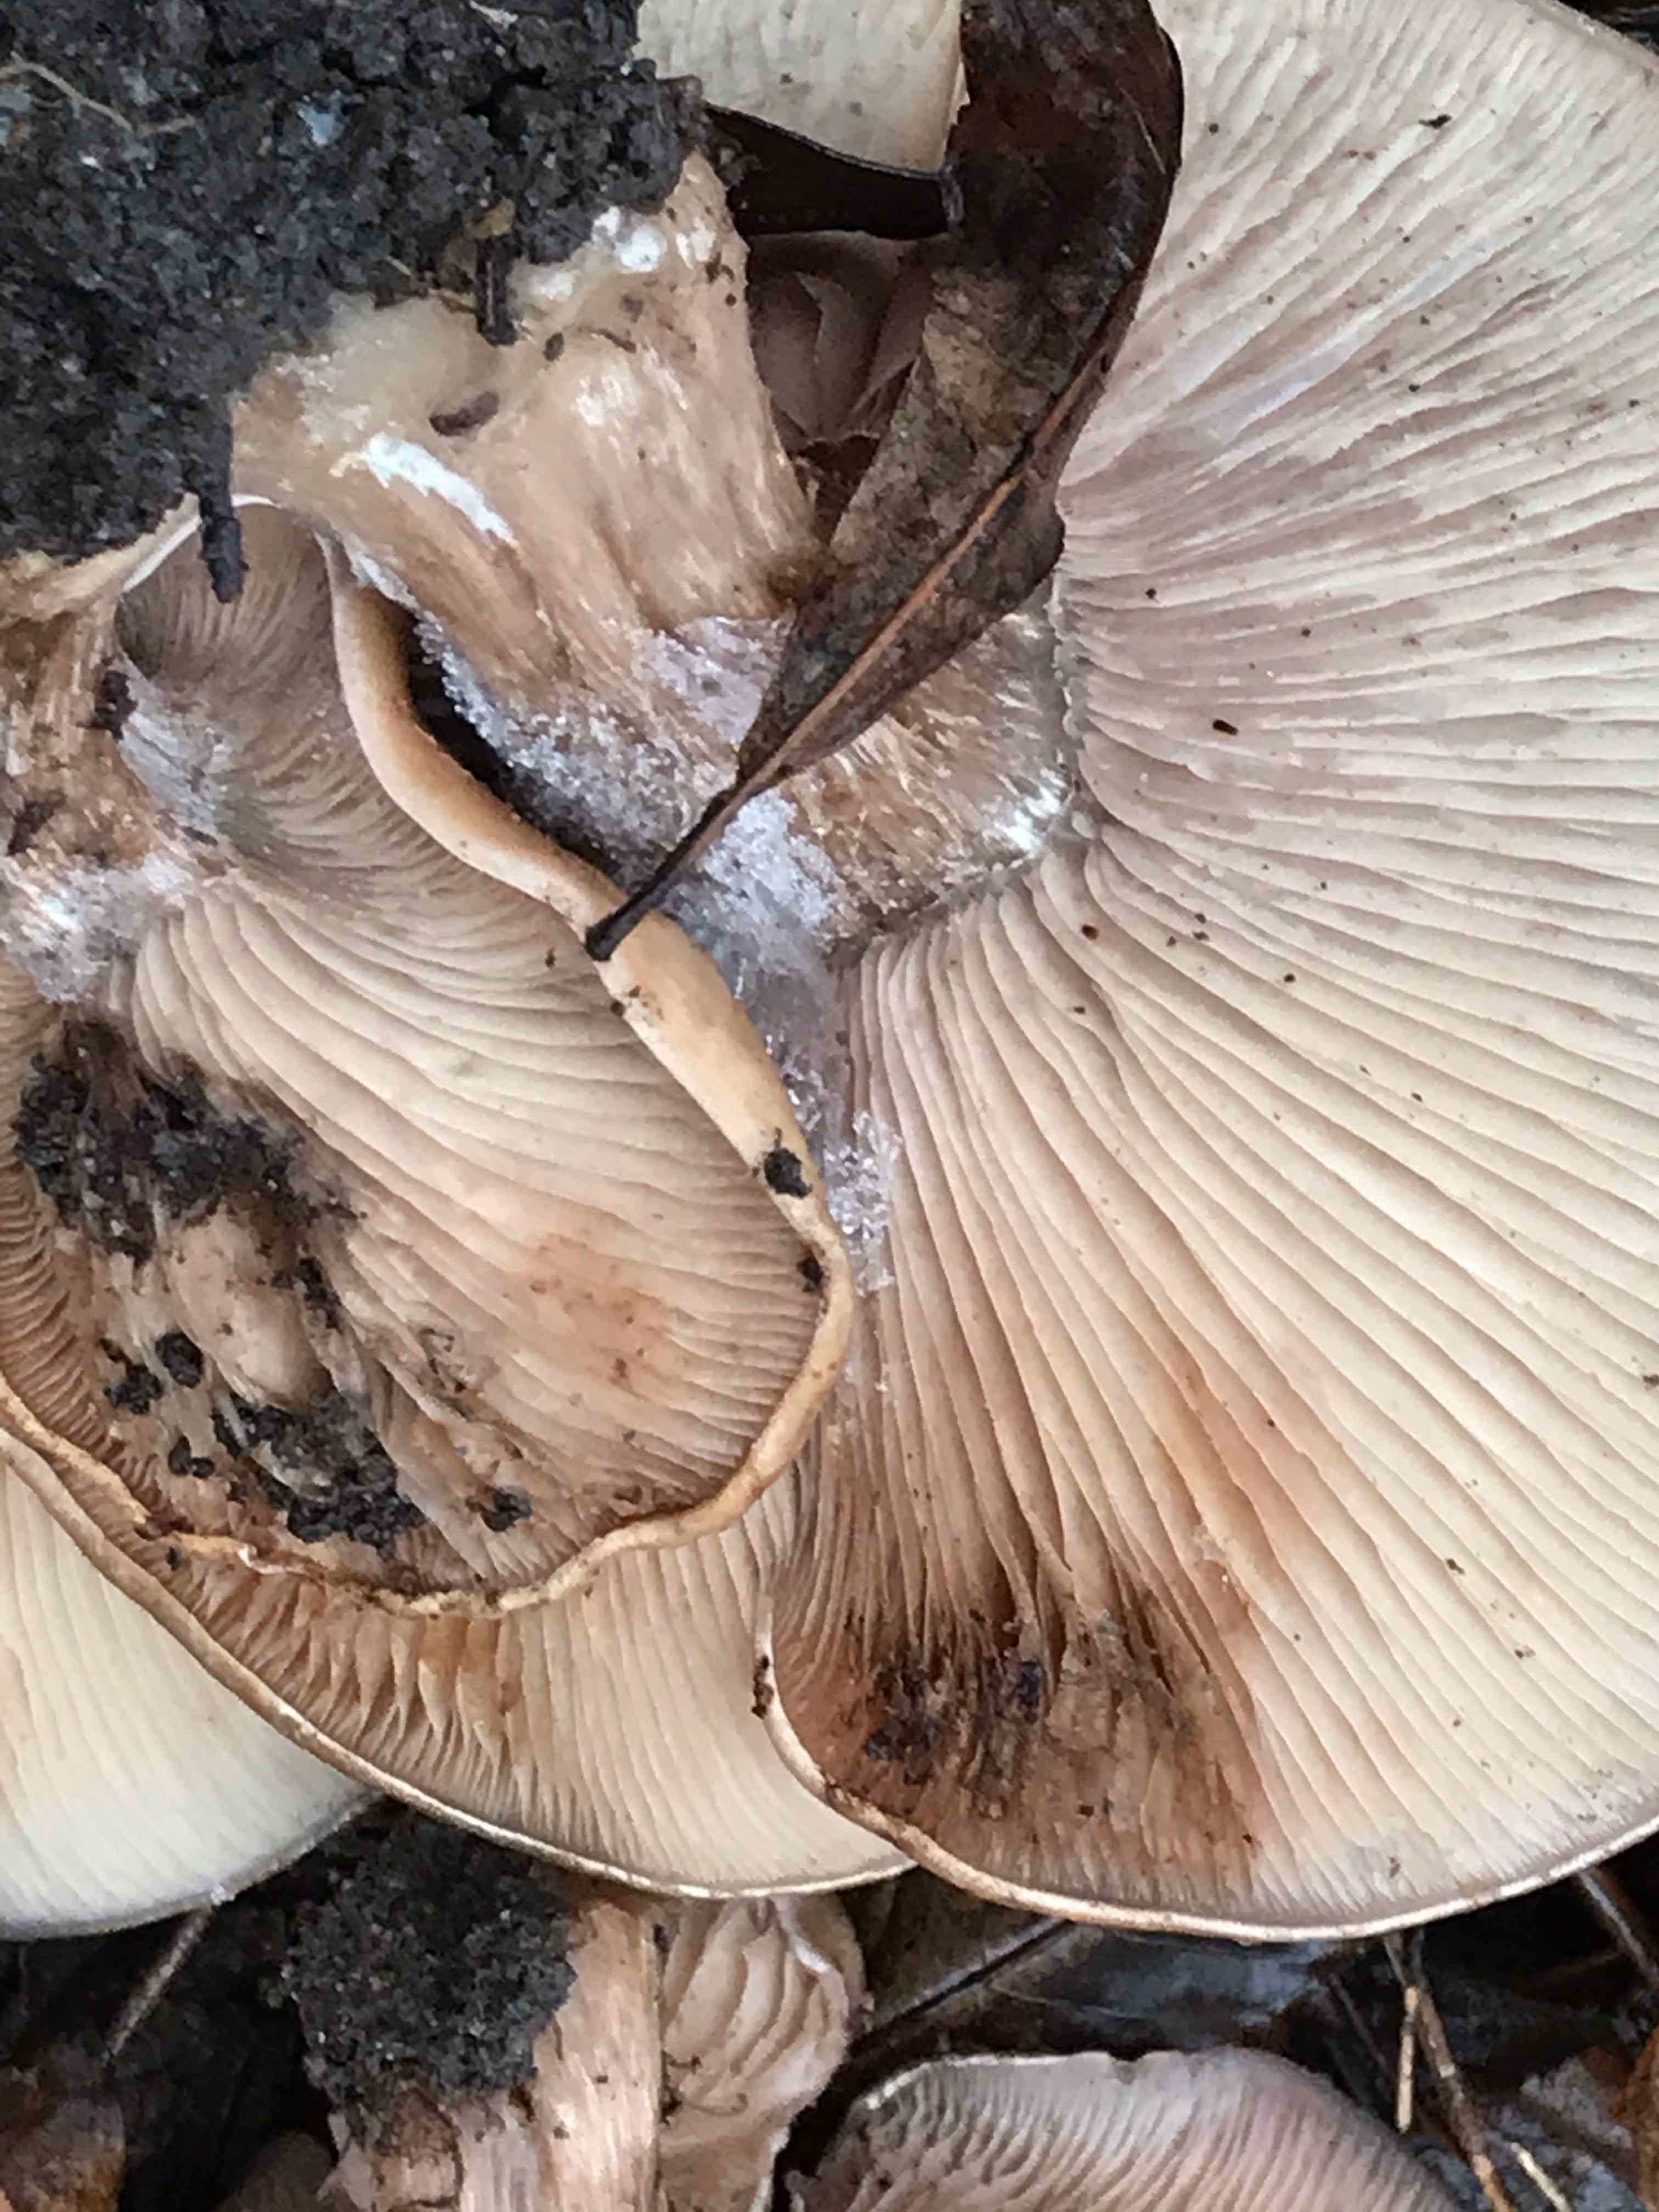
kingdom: Fungi
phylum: Basidiomycota
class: Agaricomycetes
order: Agaricales
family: Tricholomataceae
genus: Lepista
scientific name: Lepista personata
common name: bleg hekseringshat
